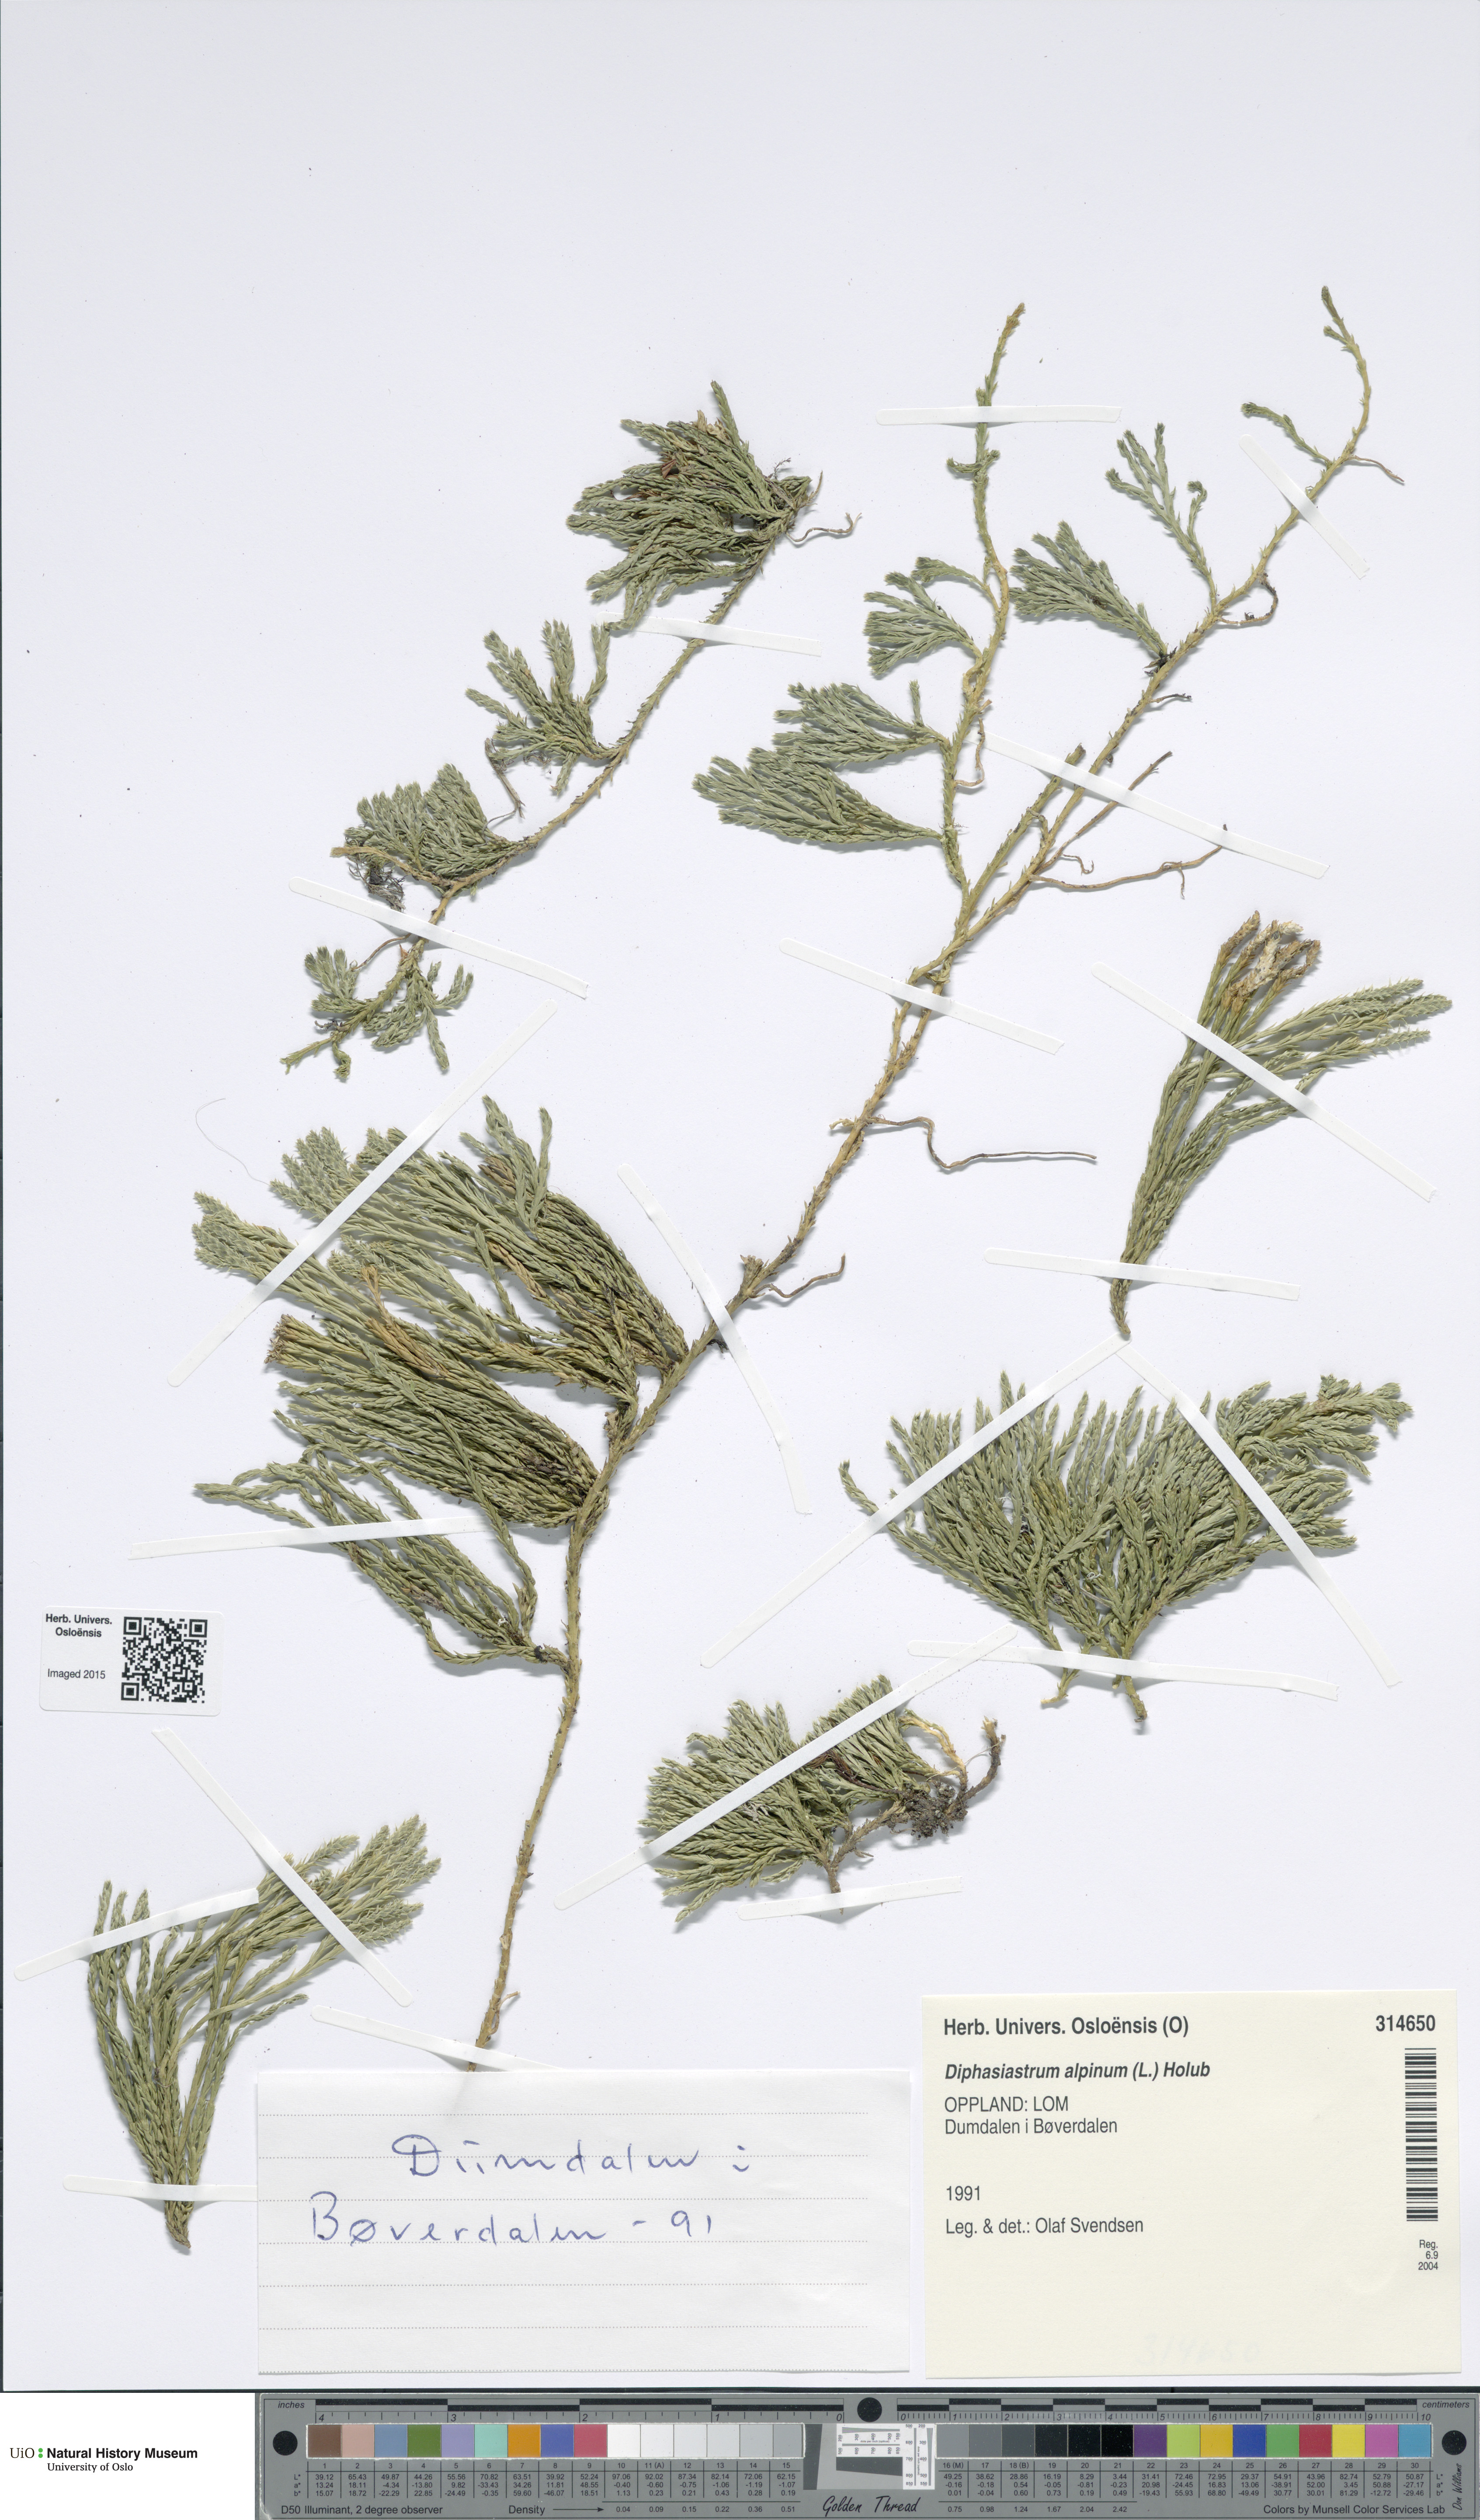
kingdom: Plantae
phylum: Tracheophyta
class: Lycopodiopsida
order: Lycopodiales
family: Lycopodiaceae
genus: Diphasiastrum
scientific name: Diphasiastrum alpinum
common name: Alpine clubmoss
